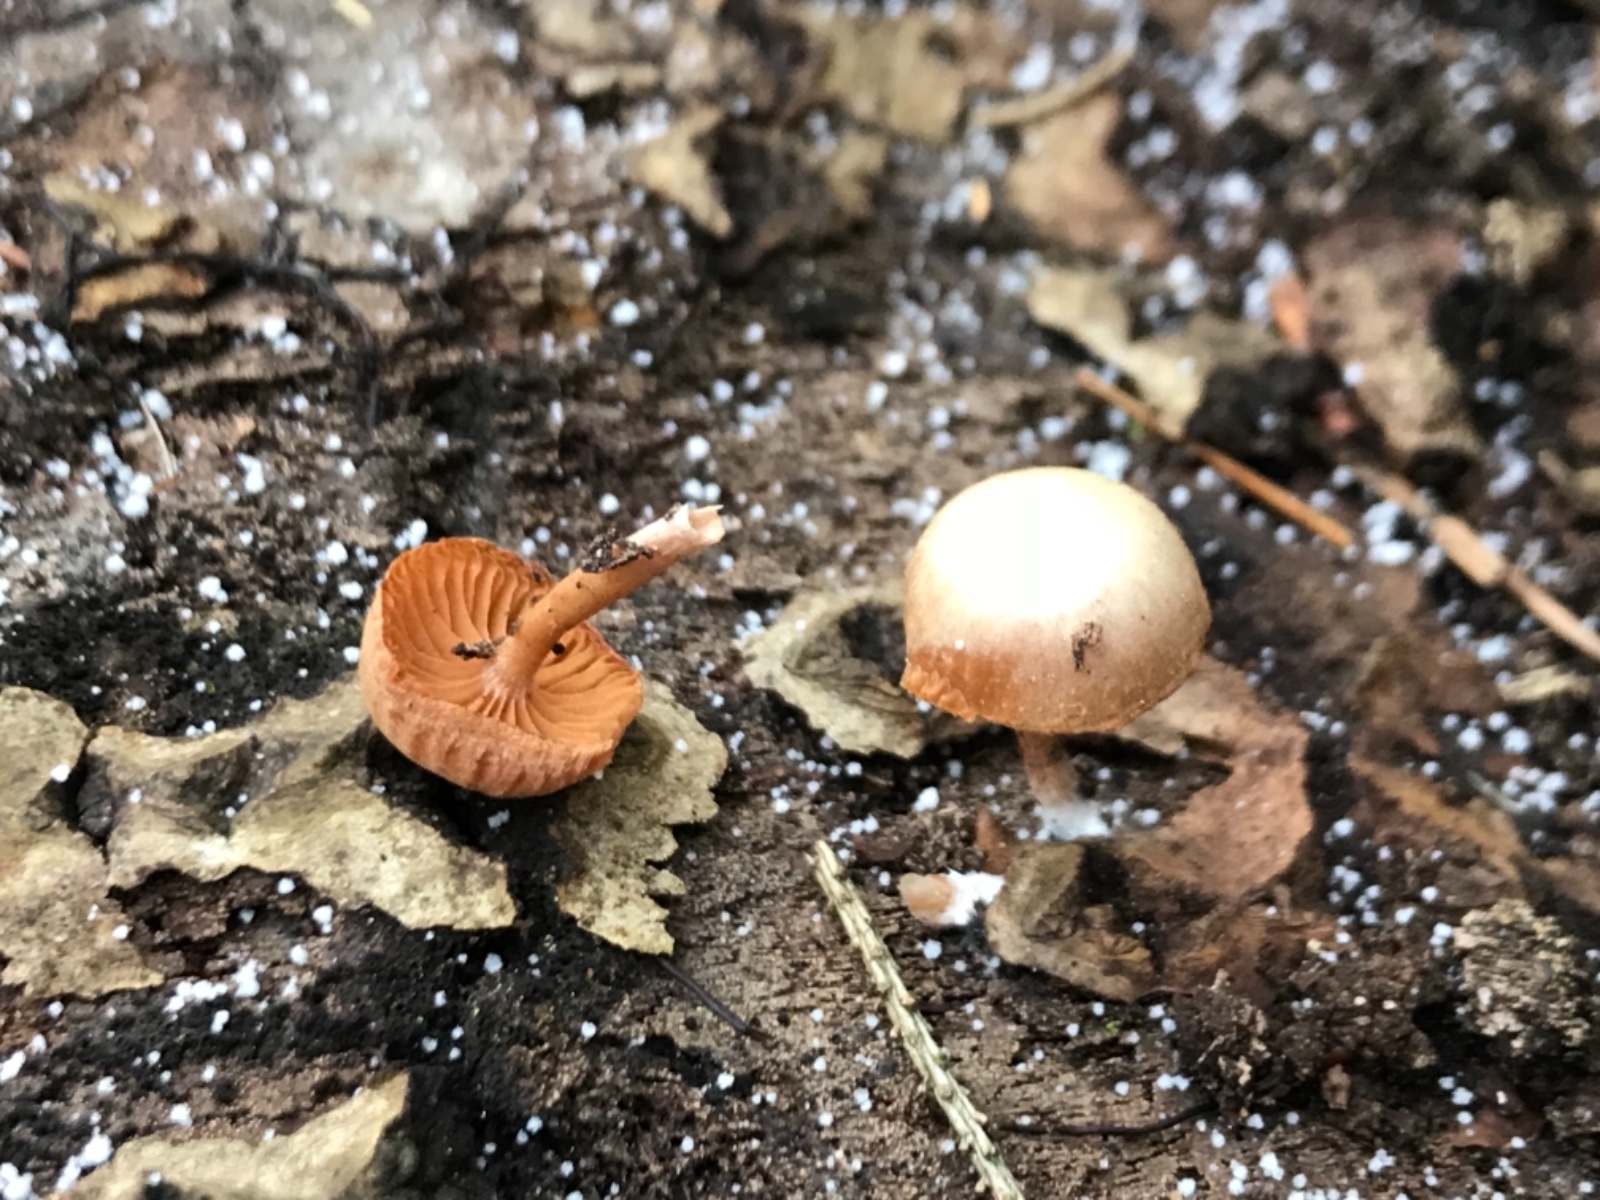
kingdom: Fungi
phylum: Basidiomycota
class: Agaricomycetes
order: Agaricales
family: Tubariaceae
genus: Tubaria
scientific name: Tubaria furfuracea
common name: kliddet fnughat
